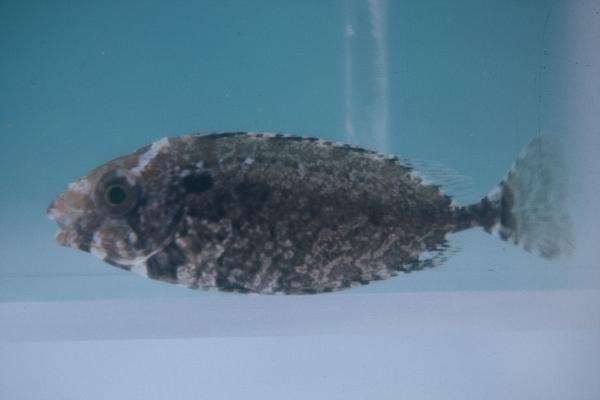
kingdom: Animalia
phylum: Chordata
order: Perciformes
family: Siganidae
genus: Siganus
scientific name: Siganus rivulatus
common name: Marbled spinefoot
